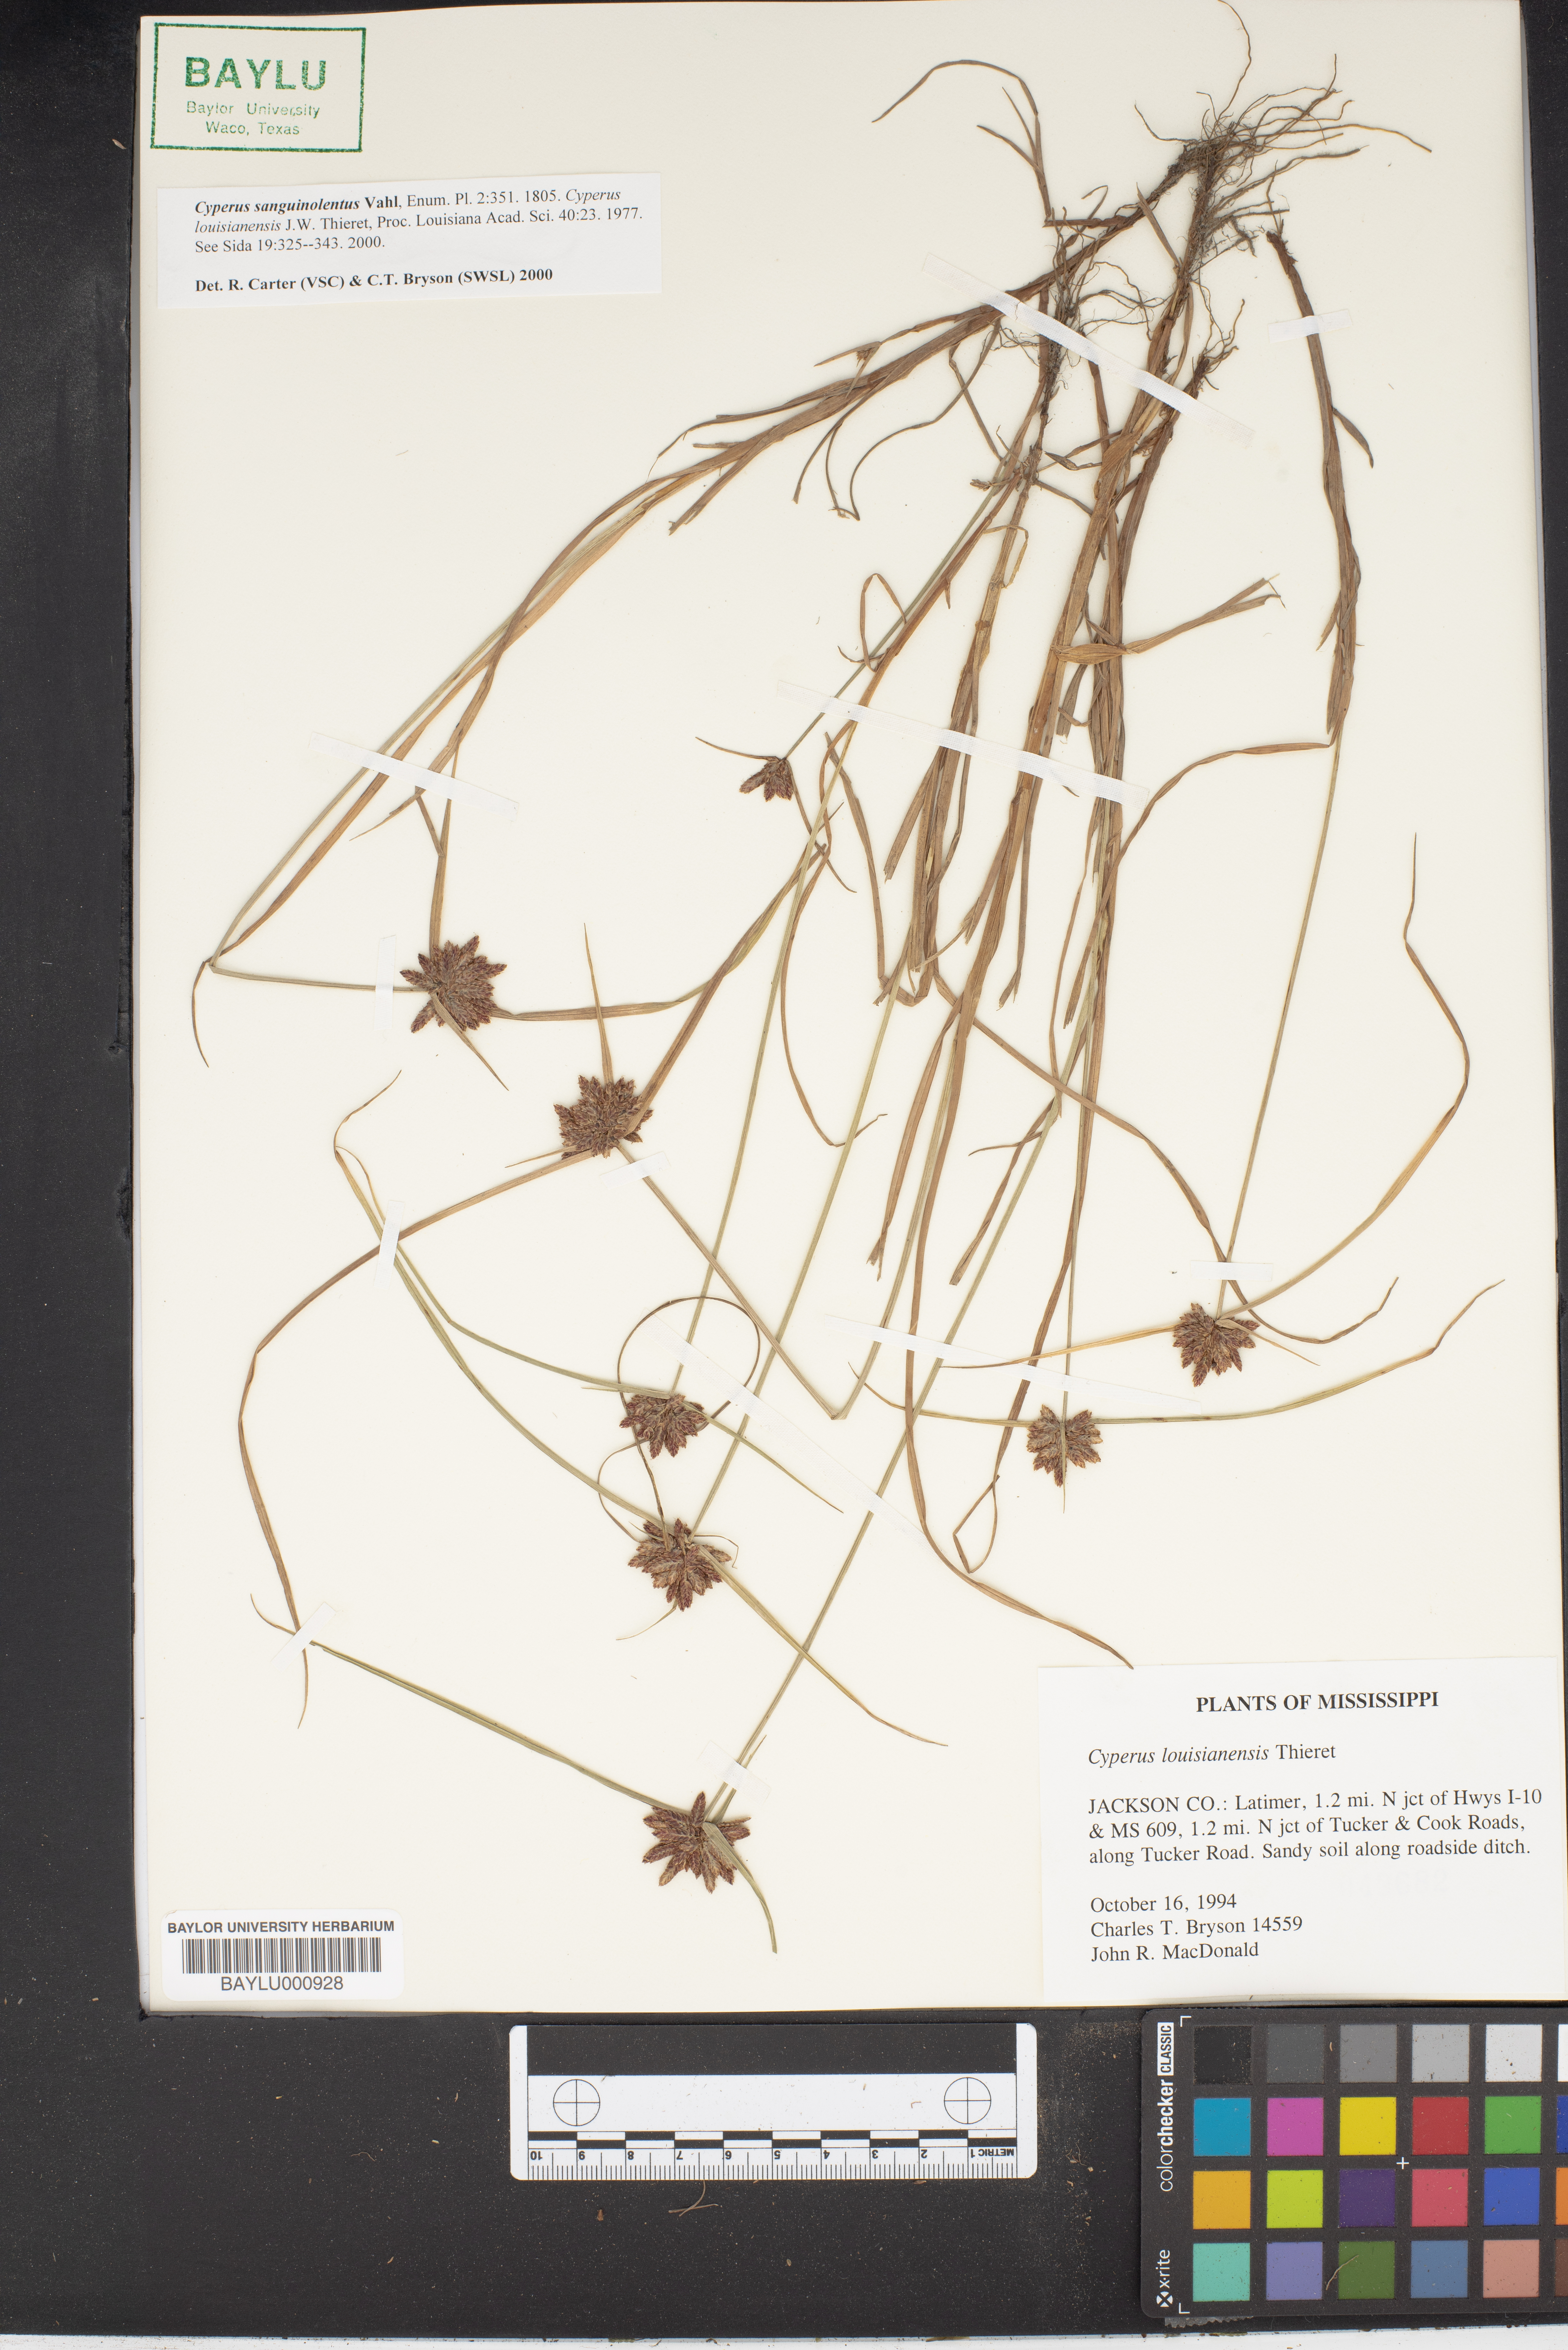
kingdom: Plantae
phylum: Tracheophyta
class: Liliopsida
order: Poales
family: Cyperaceae
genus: Cyperus
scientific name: Cyperus sanguinolentus
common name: Purpleglume flatsedge
